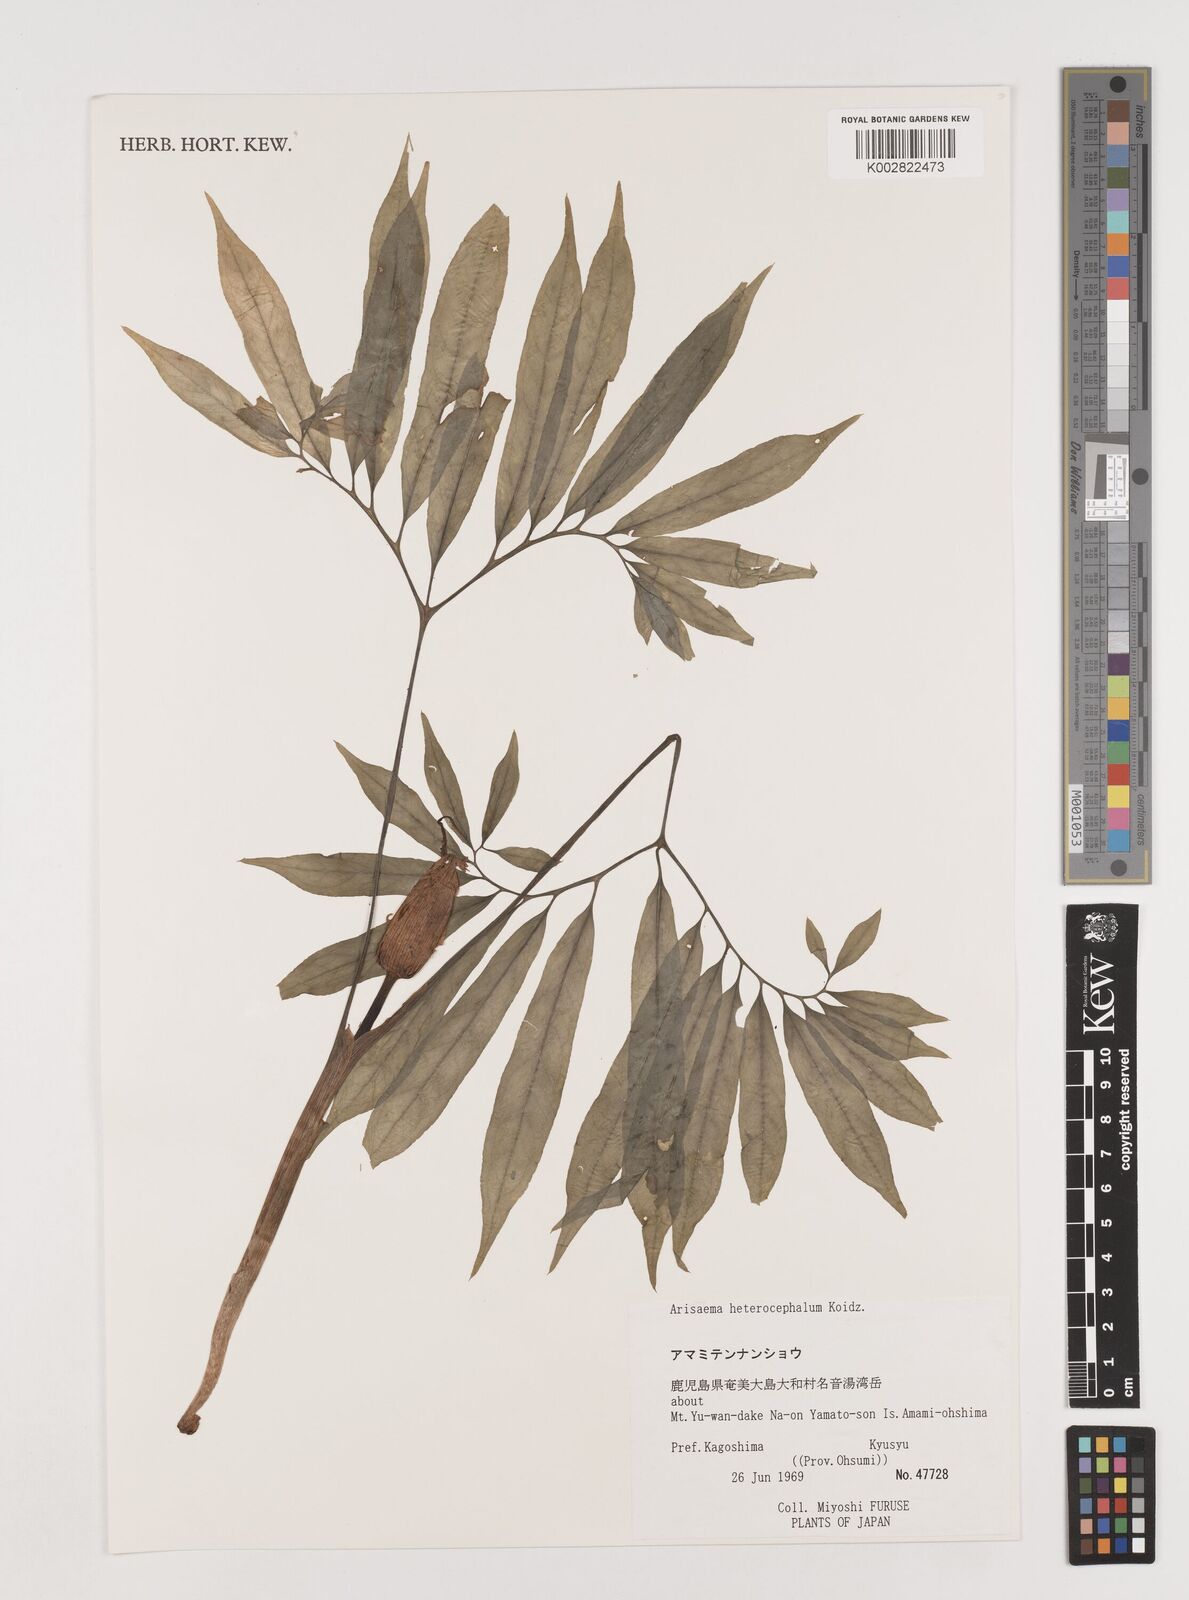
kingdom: Plantae
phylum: Tracheophyta
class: Liliopsida
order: Alismatales
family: Araceae
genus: Arisaema
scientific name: Arisaema heterocephalum
